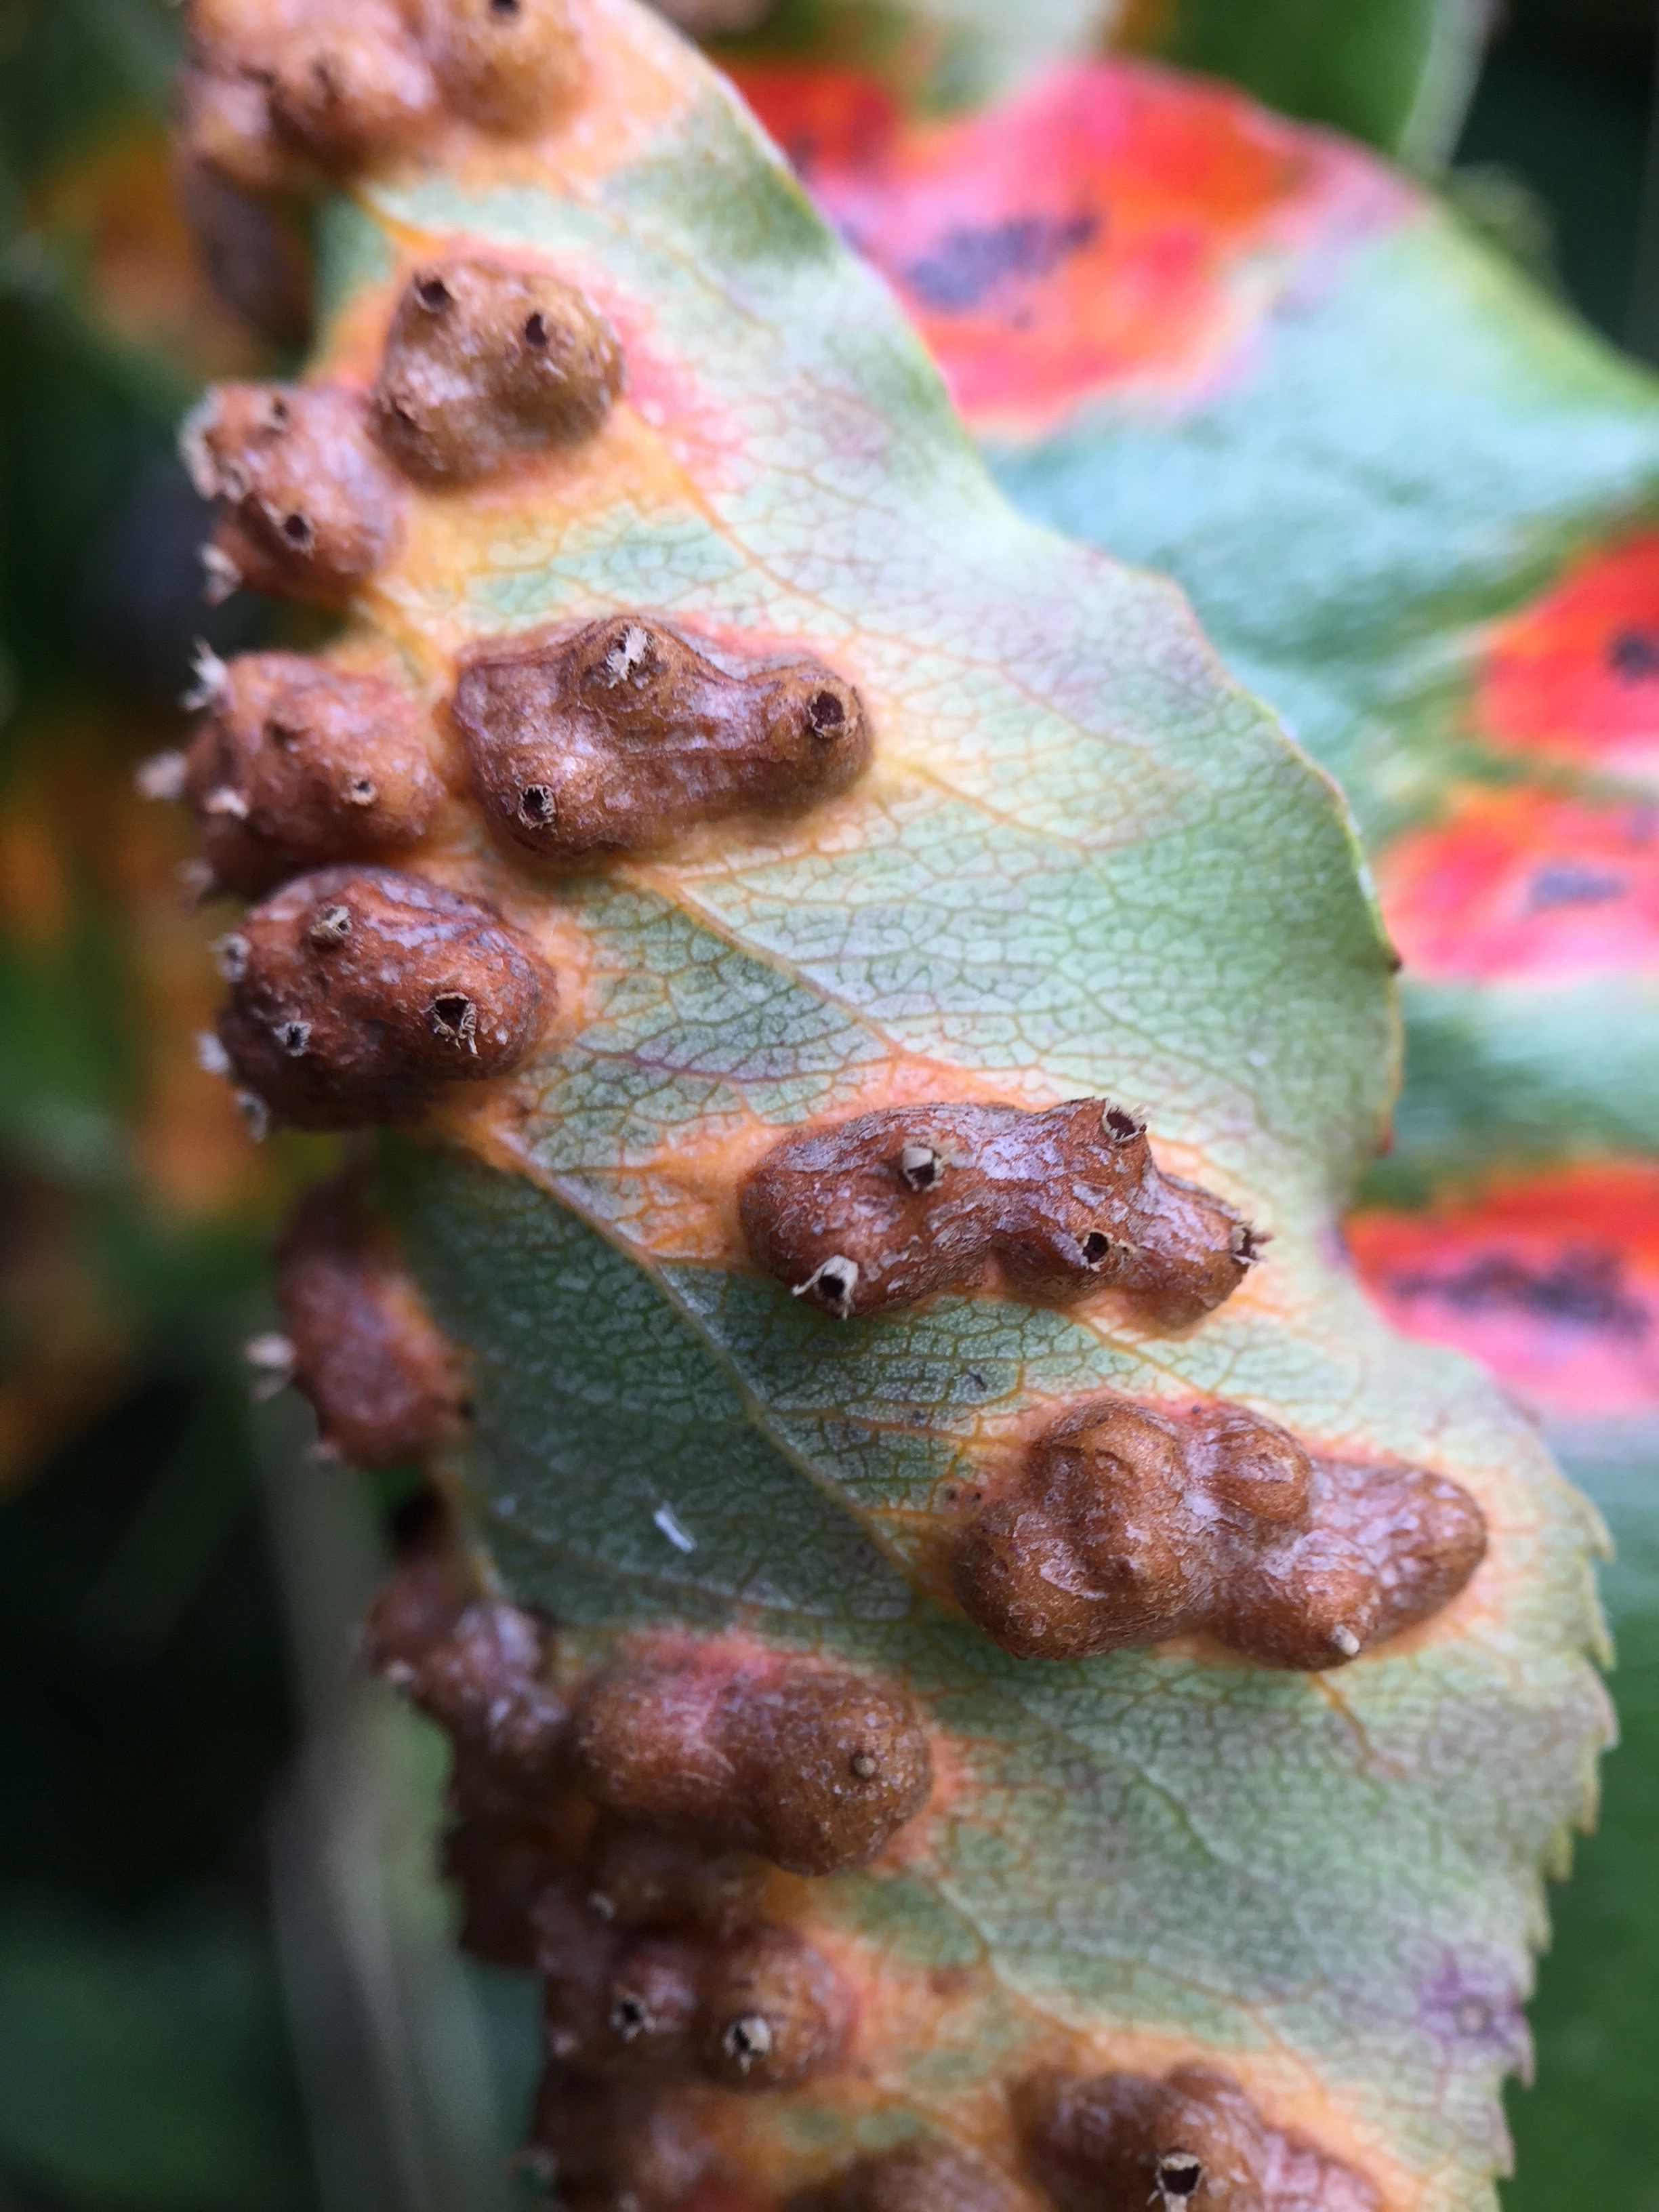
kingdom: Fungi
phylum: Basidiomycota
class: Pucciniomycetes
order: Pucciniales
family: Gymnosporangiaceae
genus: Gymnosporangium
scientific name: Gymnosporangium sabinae
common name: pæregitter-bævrerust
